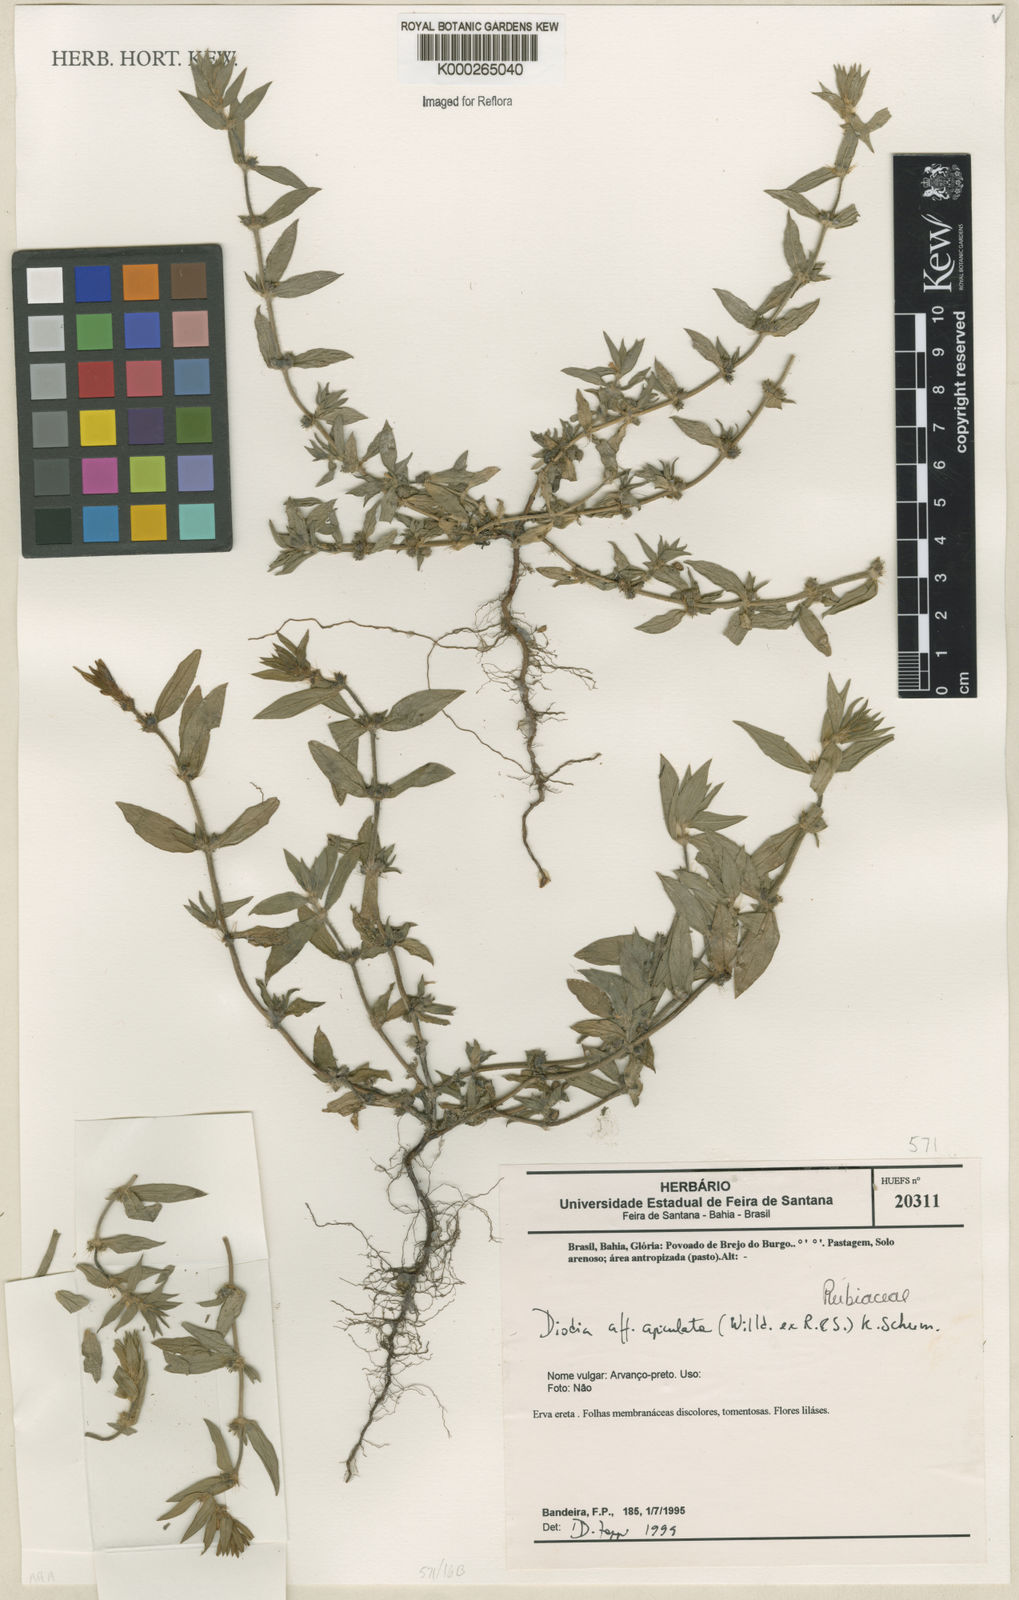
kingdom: Plantae
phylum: Tracheophyta
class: Magnoliopsida
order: Gentianales
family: Rubiaceae
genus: Hexasepalum
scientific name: Hexasepalum apiculatum
